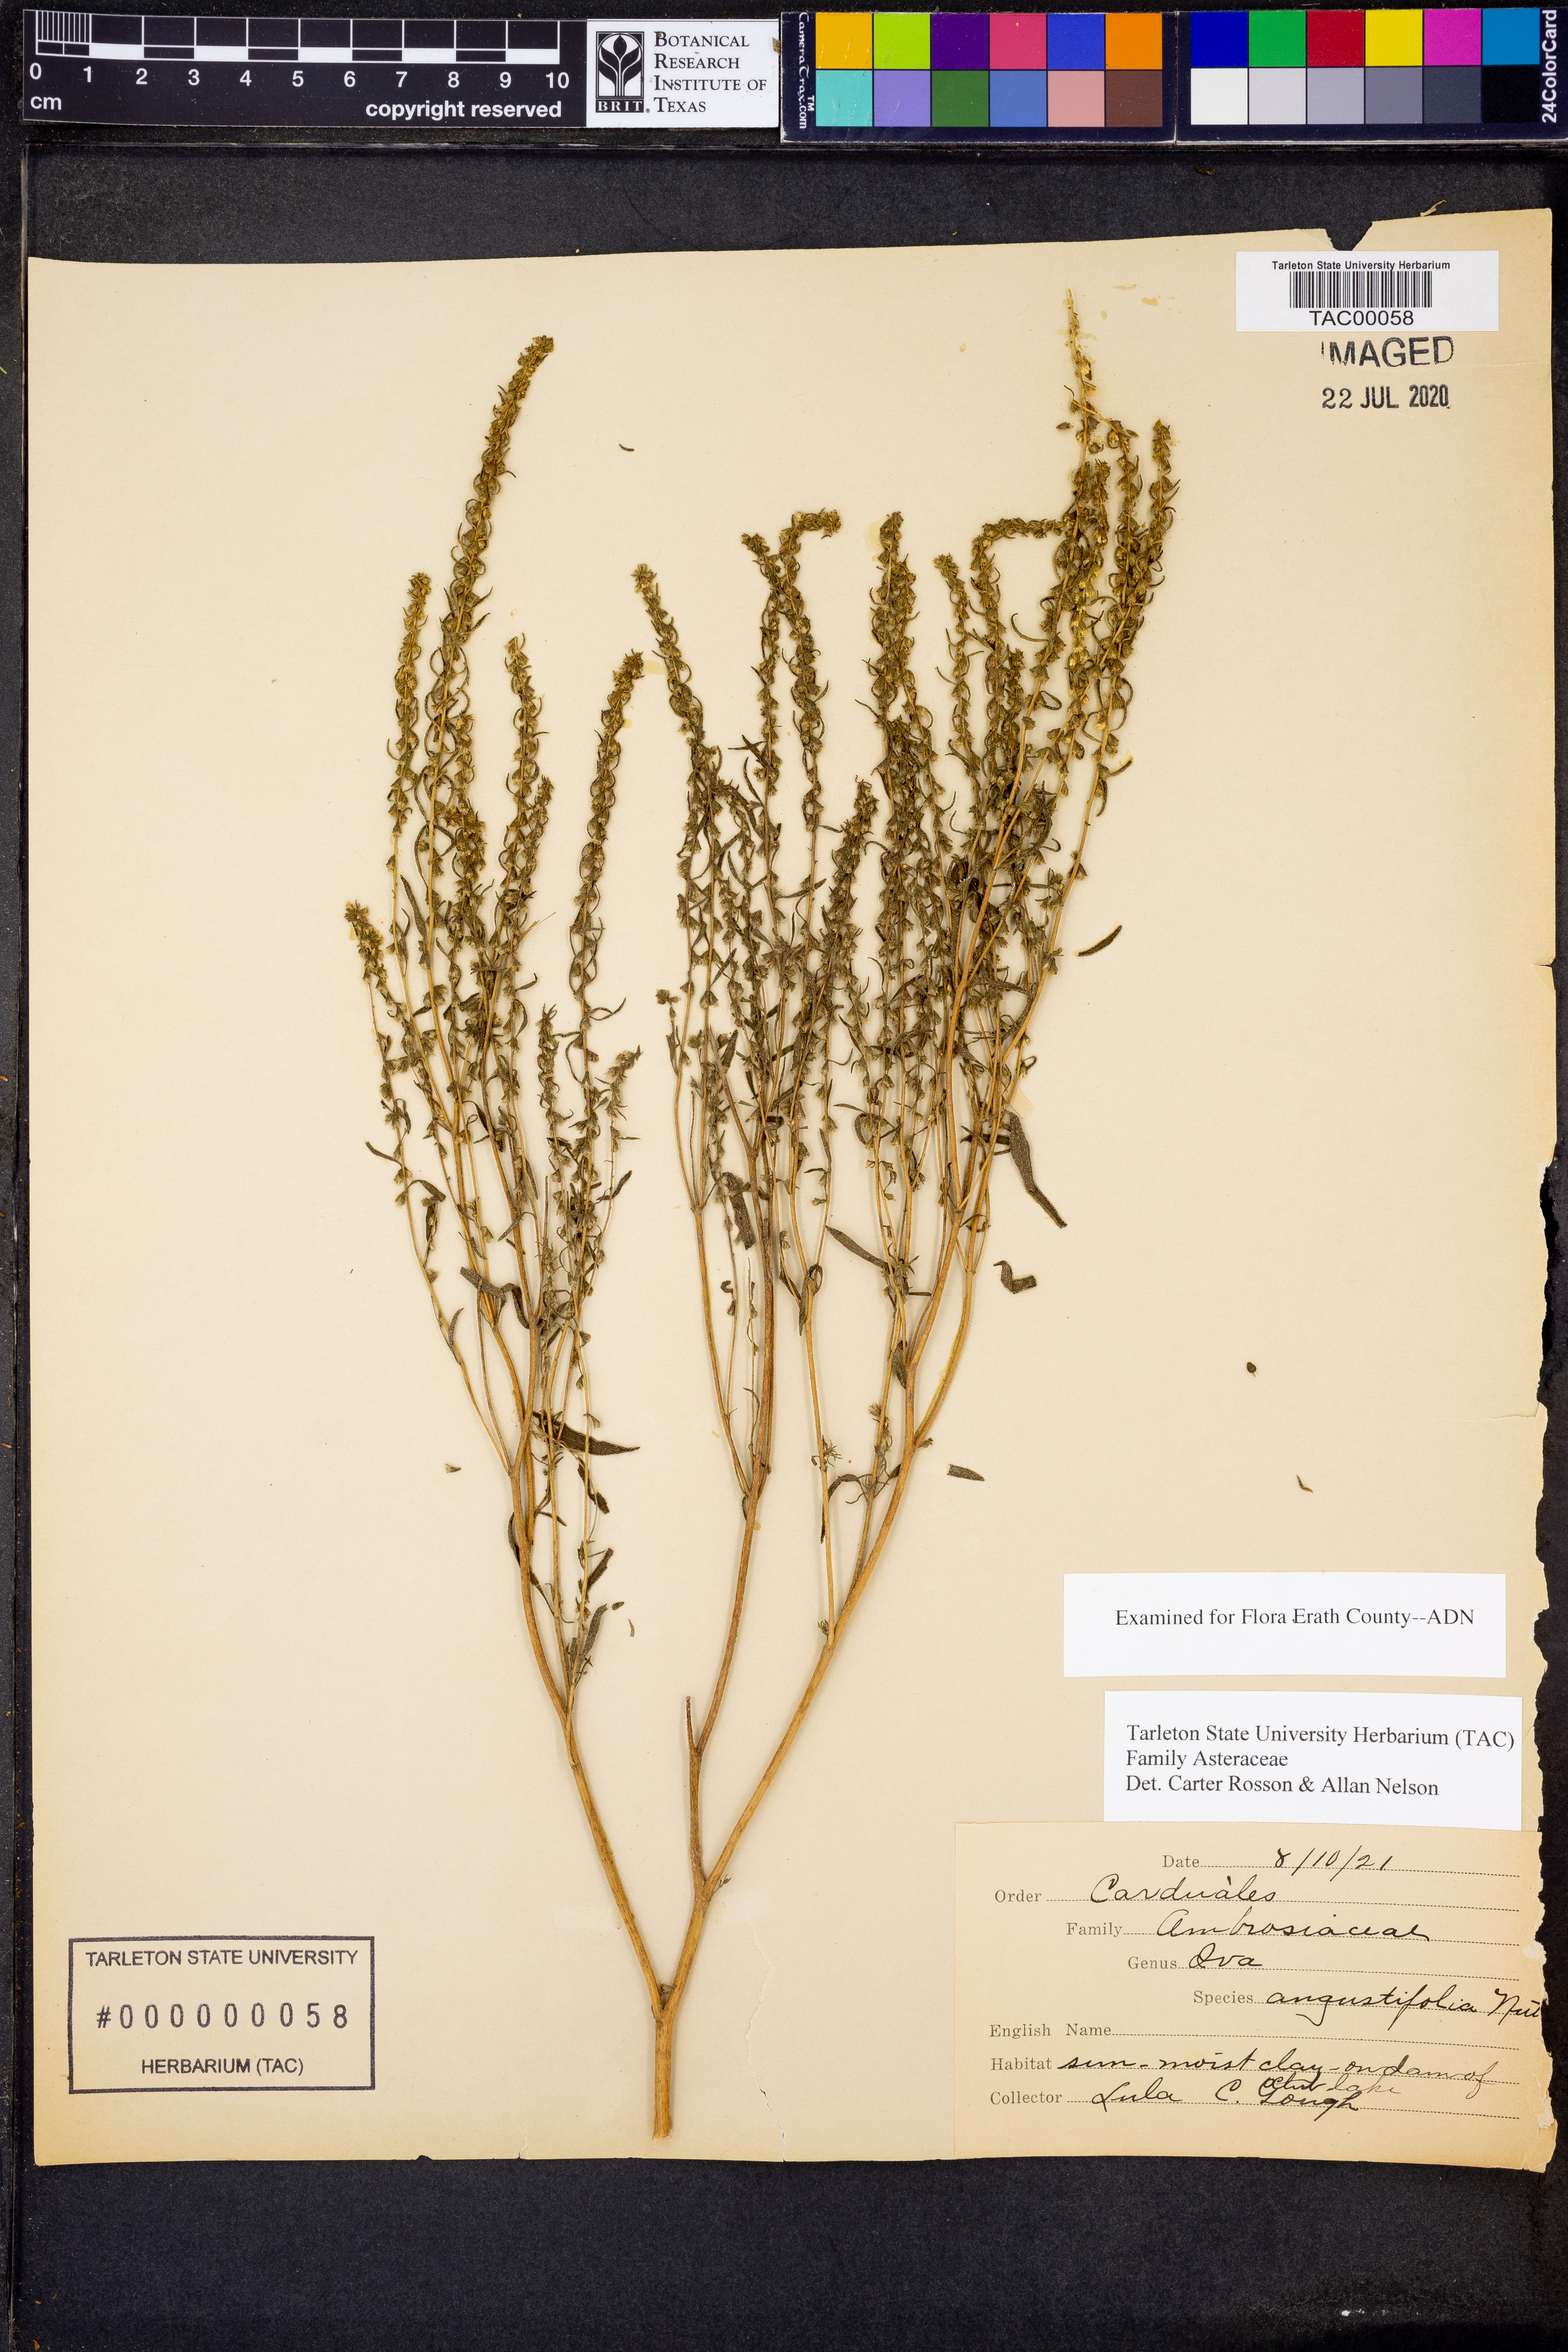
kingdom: Plantae
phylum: Tracheophyta
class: Magnoliopsida
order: Asterales
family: Asteraceae
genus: Iva
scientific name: Iva asperifolia
